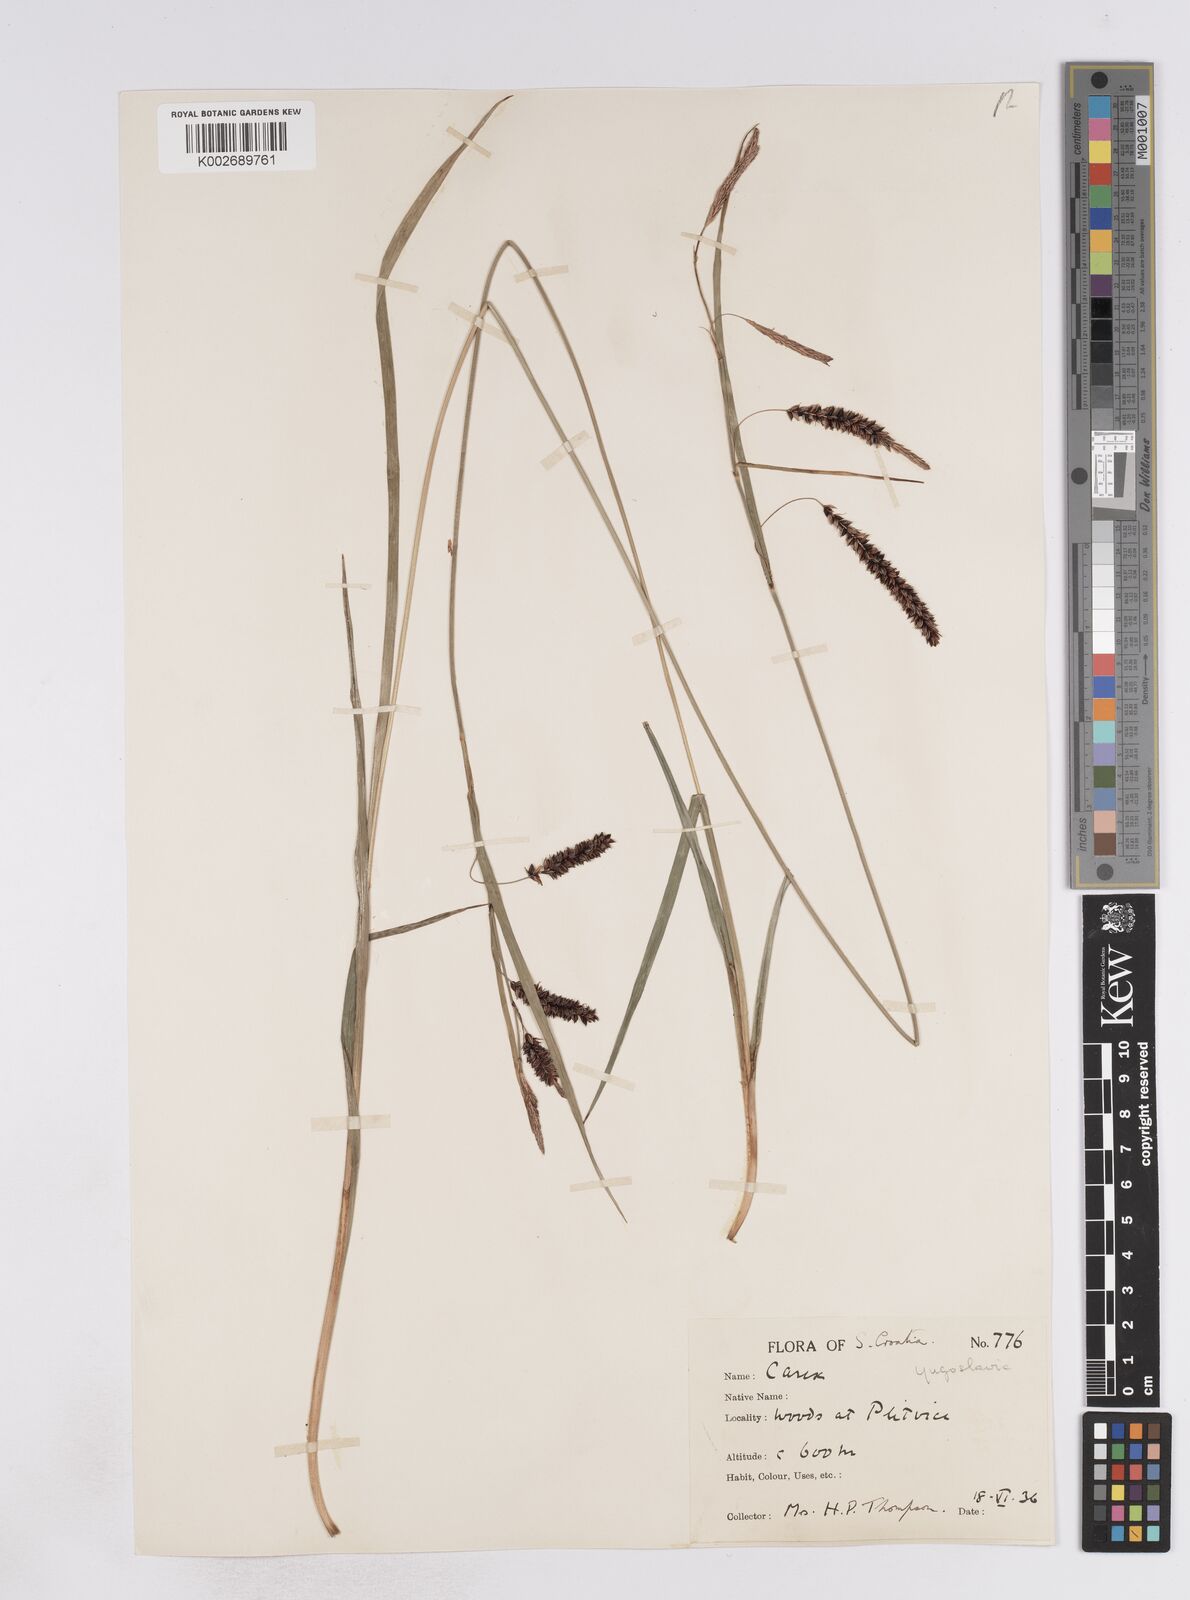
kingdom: Plantae
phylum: Tracheophyta
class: Liliopsida
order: Poales
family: Cyperaceae
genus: Carex
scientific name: Carex flacca
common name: Glaucous sedge
